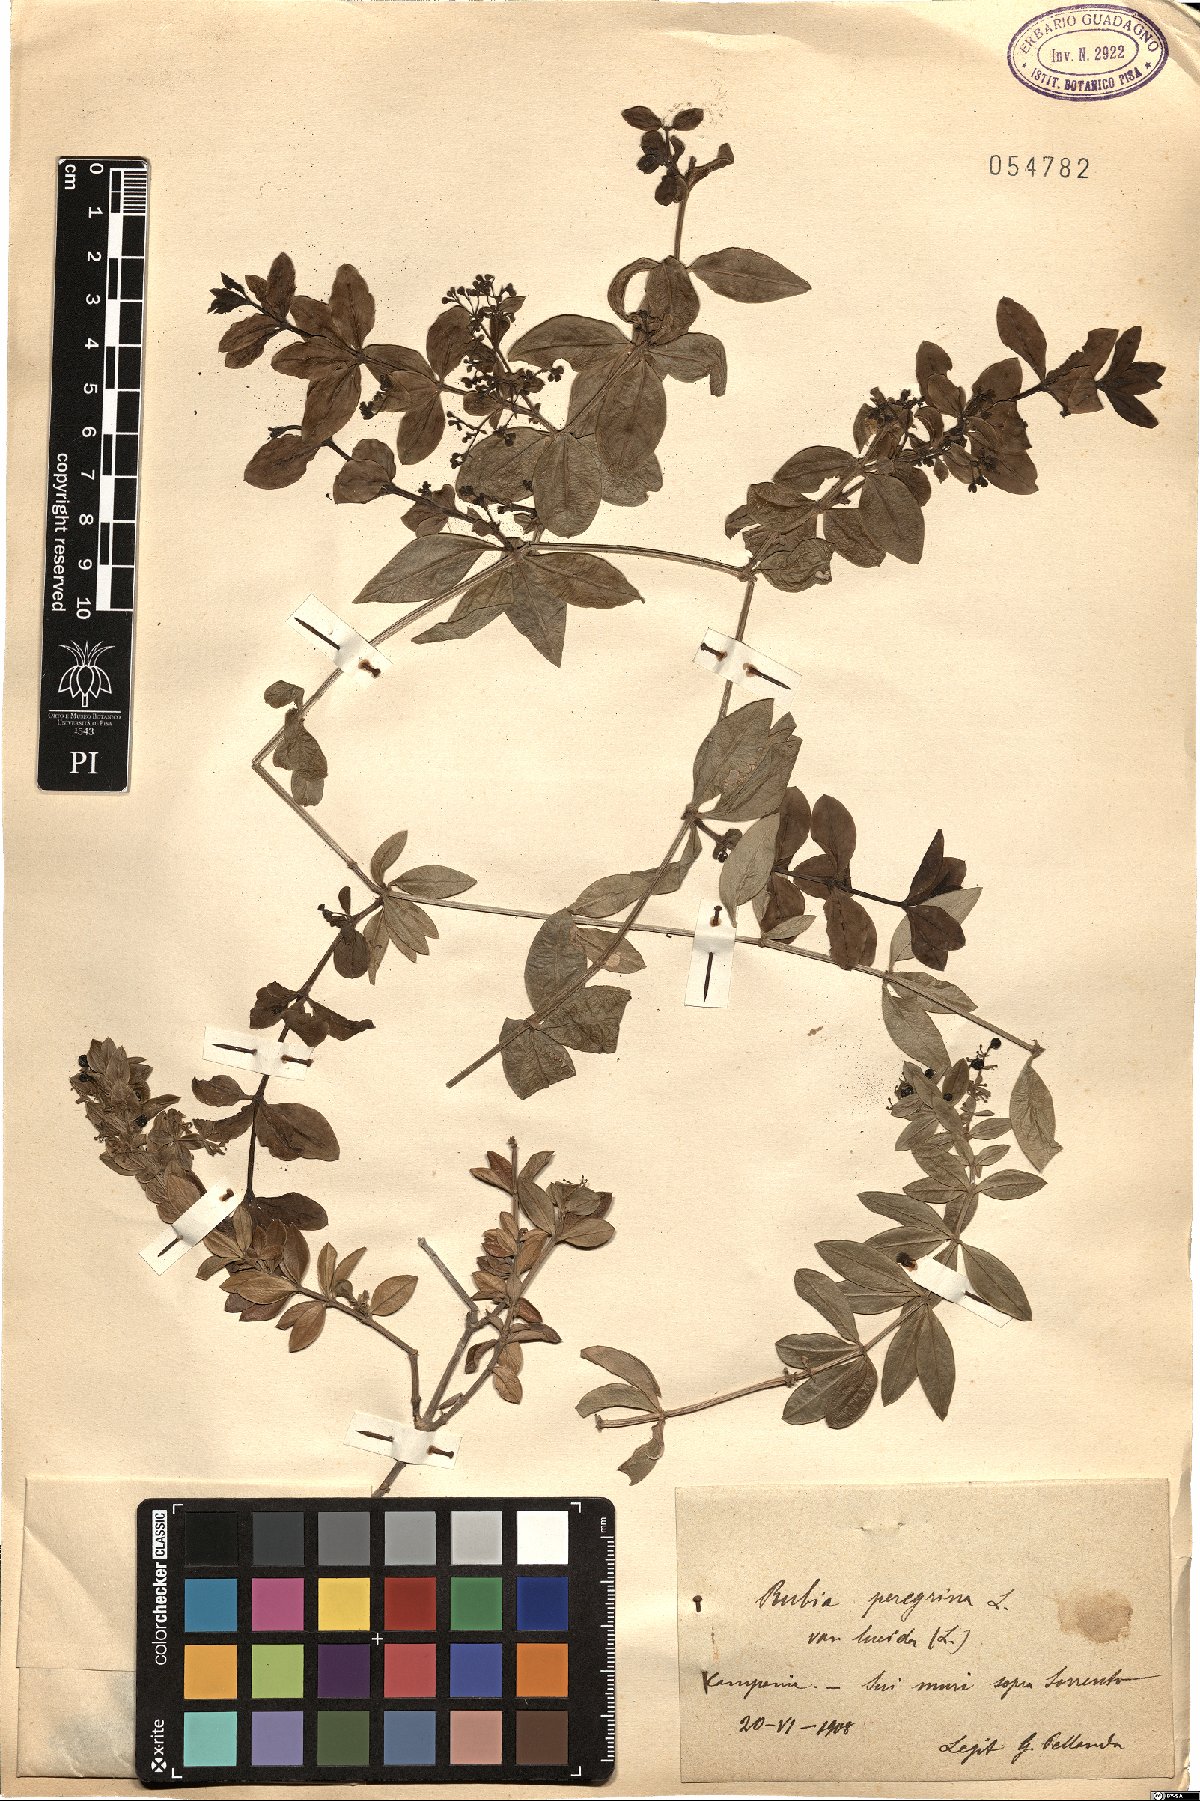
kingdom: Plantae
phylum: Tracheophyta
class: Magnoliopsida
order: Gentianales
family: Rubiaceae
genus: Rubia
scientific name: Rubia peregrina
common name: Wild madder
